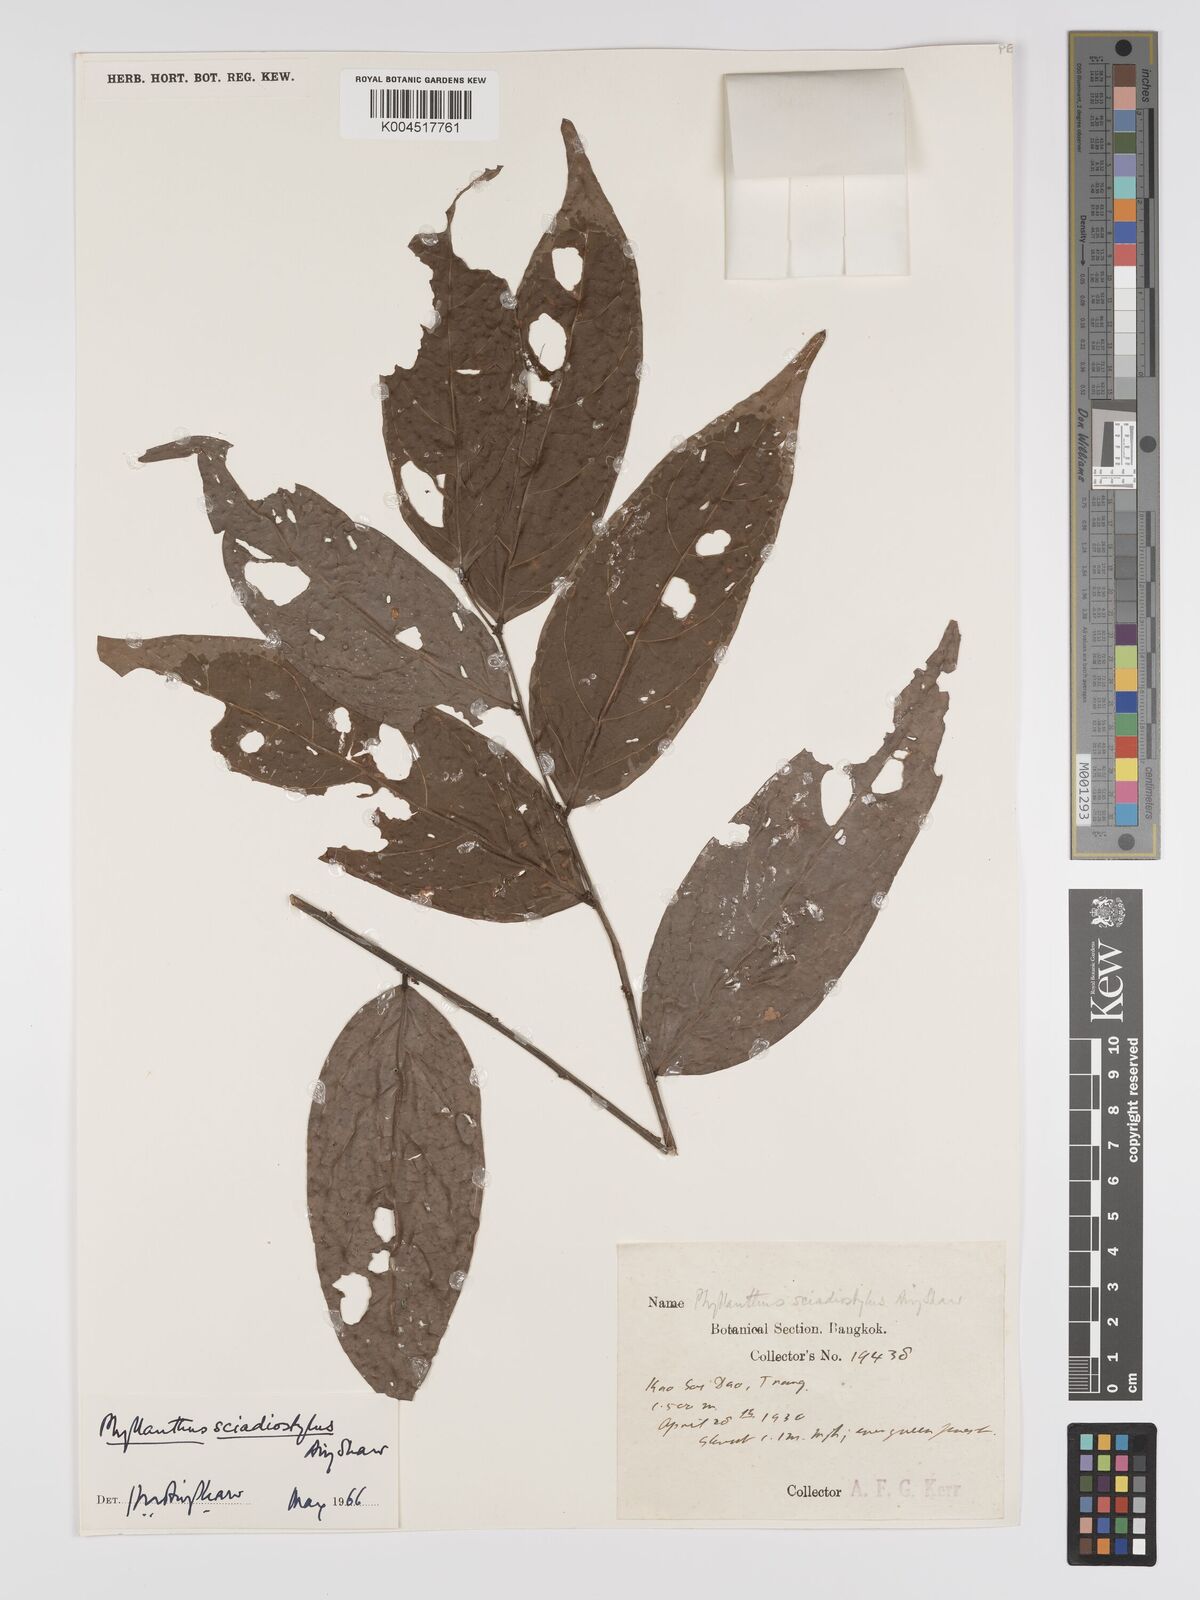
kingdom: Plantae
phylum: Tracheophyta
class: Magnoliopsida
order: Malpighiales
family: Phyllanthaceae
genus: Phyllanthus
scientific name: Phyllanthus pachyphyllus
